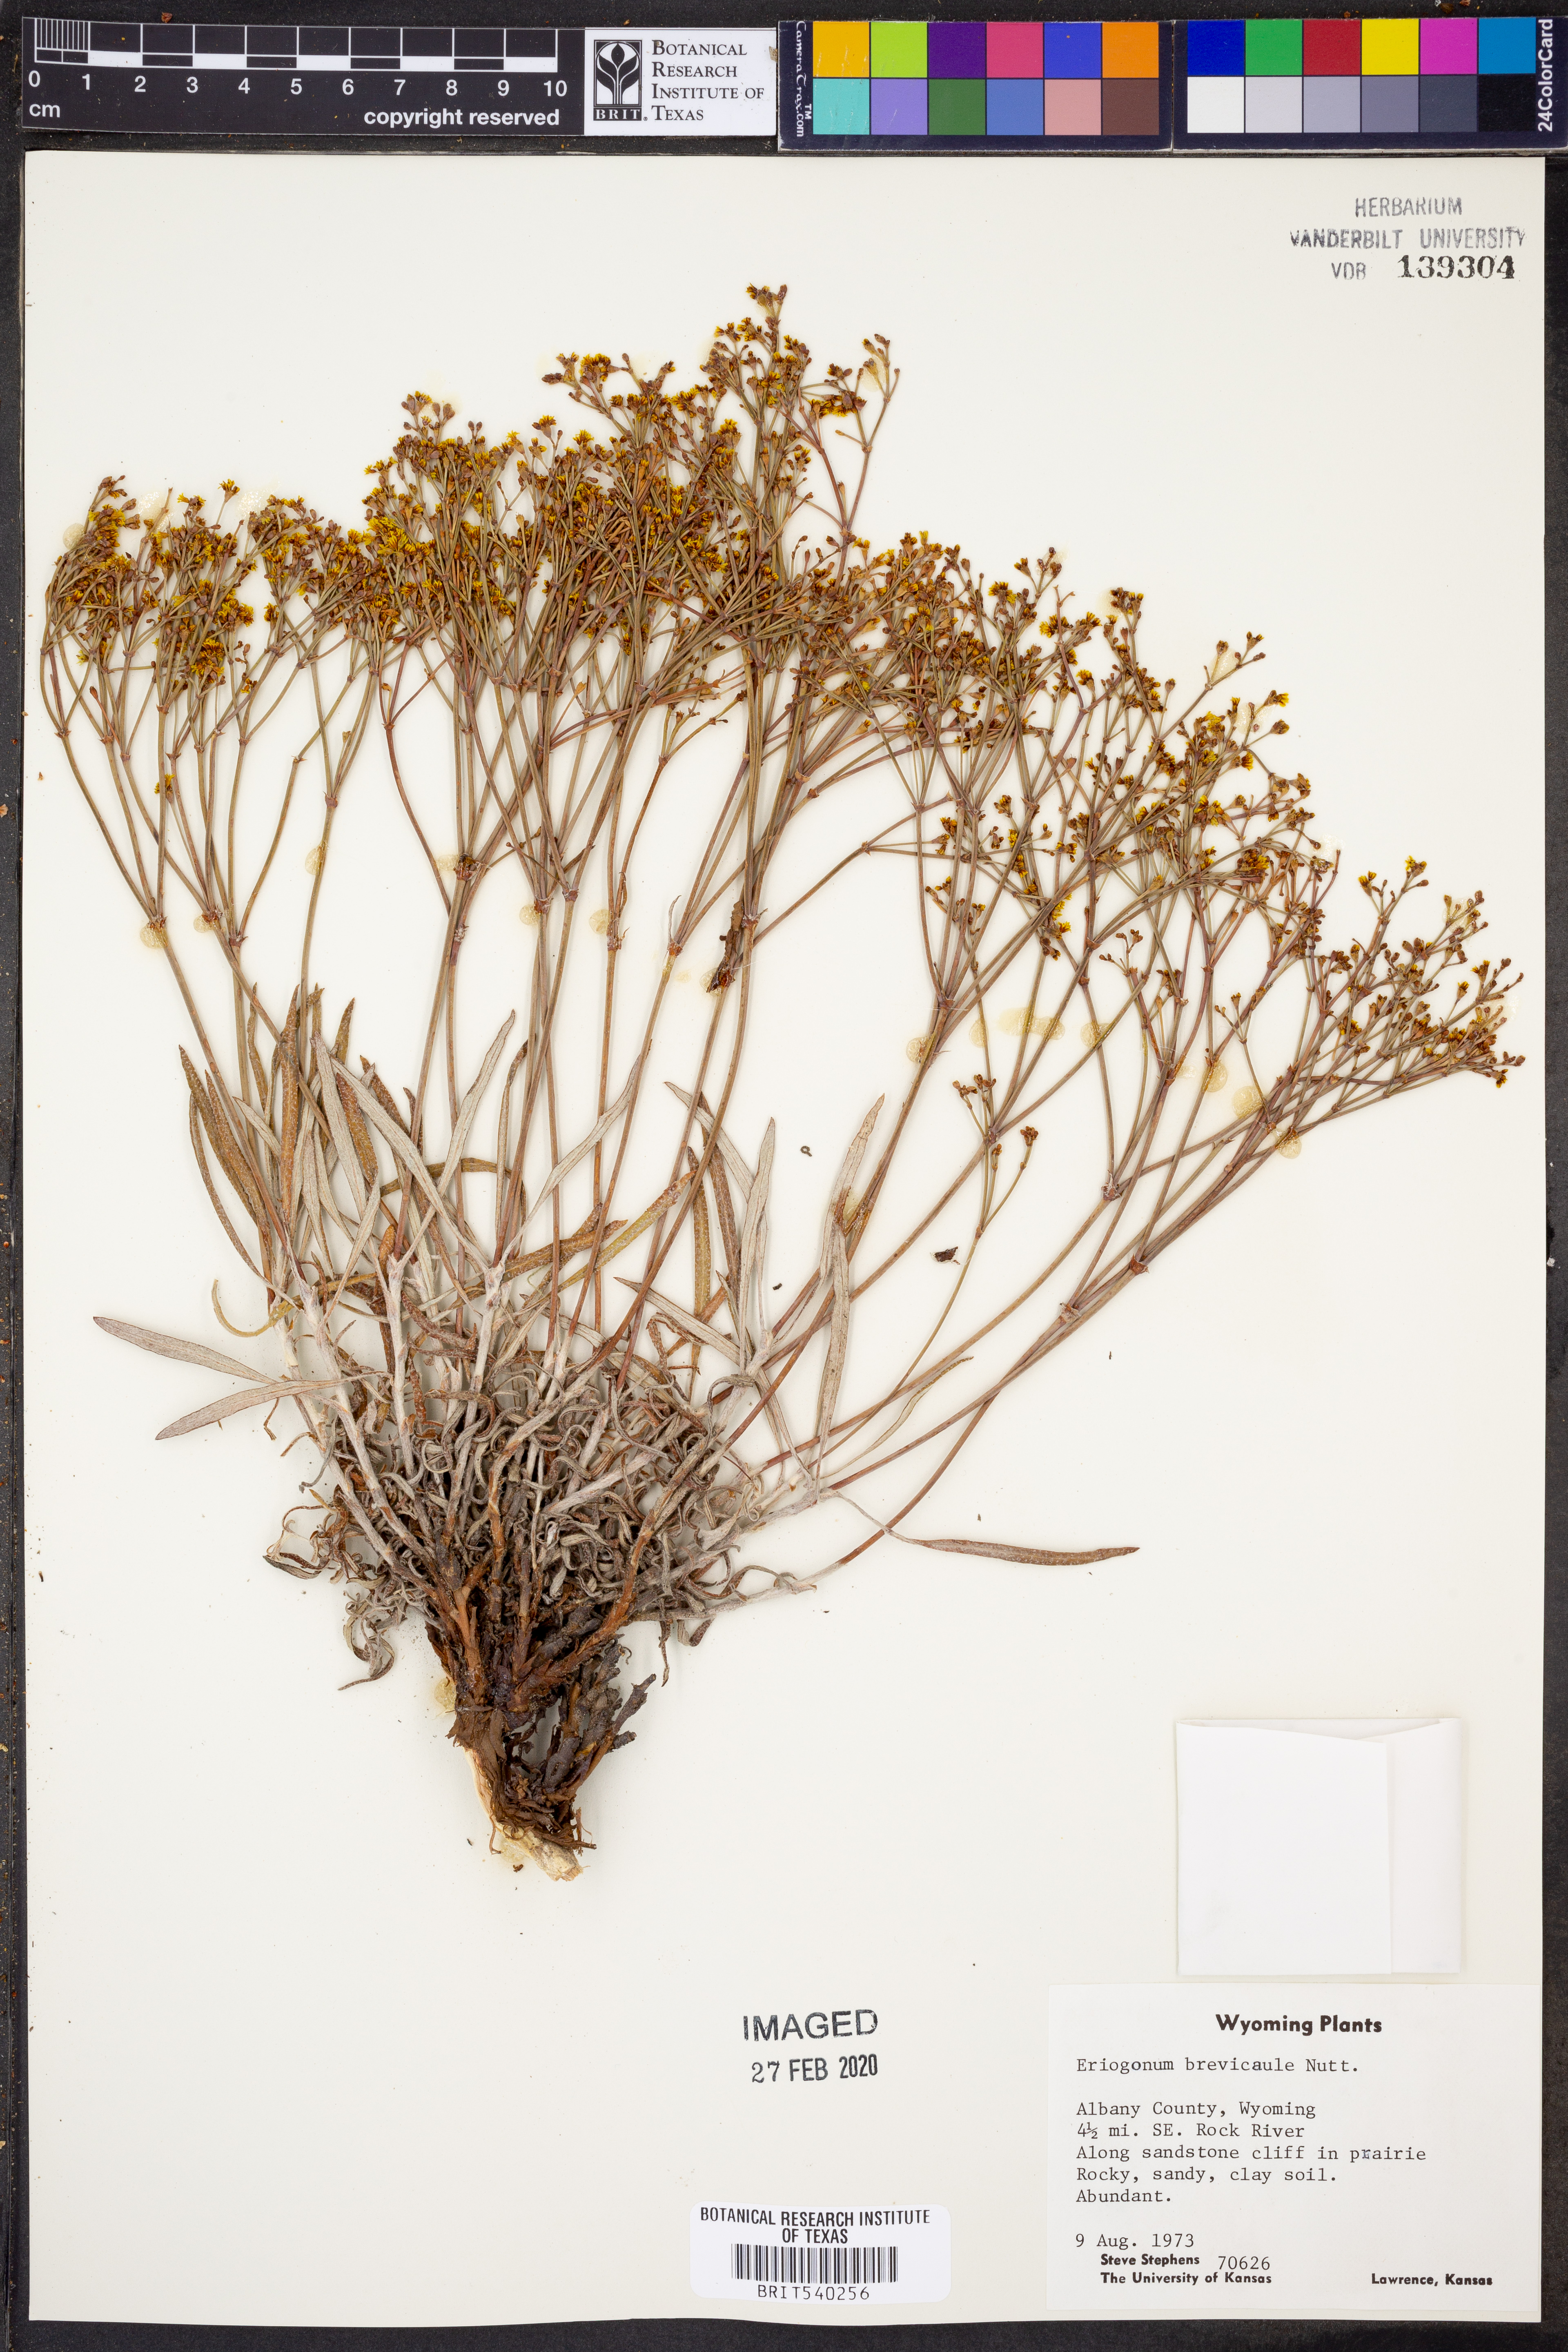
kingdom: Plantae
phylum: Tracheophyta
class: Magnoliopsida
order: Caryophyllales
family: Polygonaceae
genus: Eriogonum
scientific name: Eriogonum brevicaule
